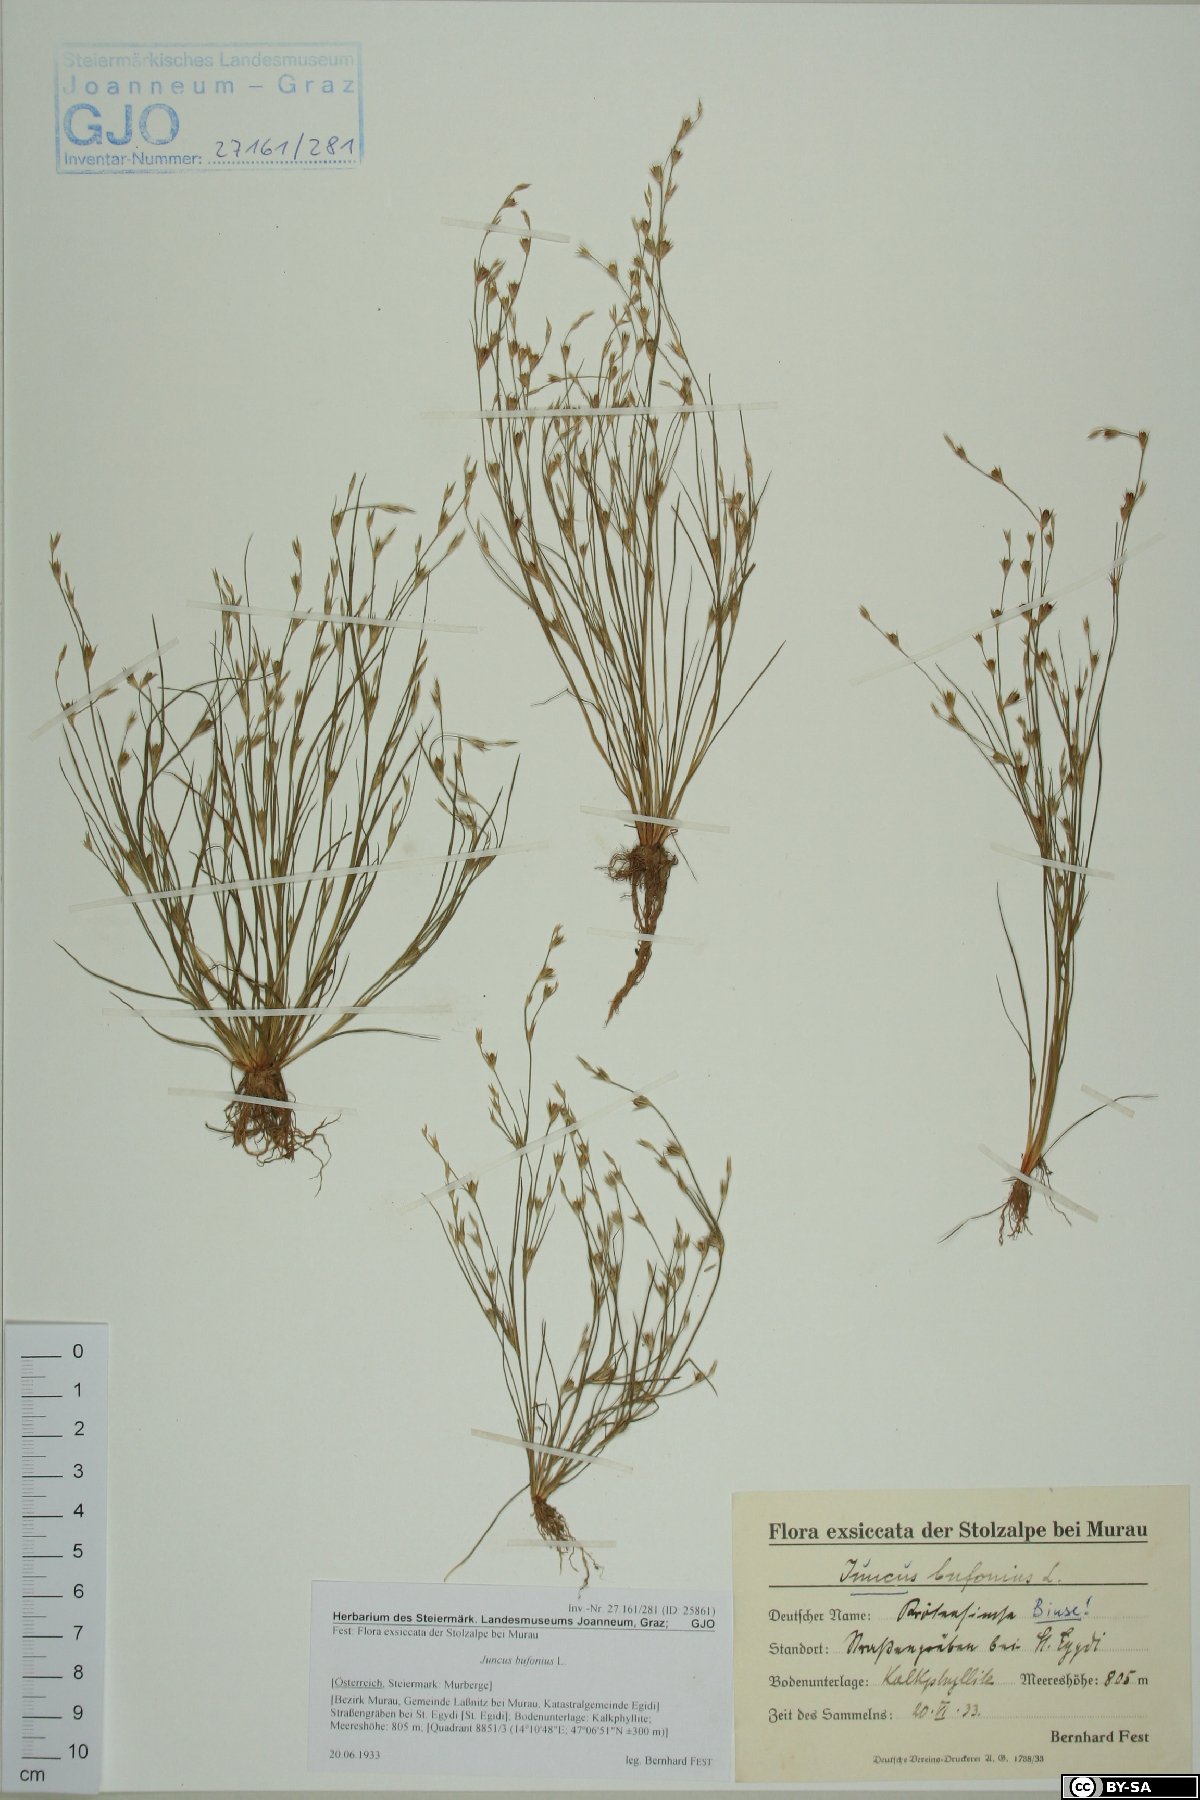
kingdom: Plantae
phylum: Tracheophyta
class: Liliopsida
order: Poales
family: Juncaceae
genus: Juncus
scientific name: Juncus bufonius
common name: Toad rush
